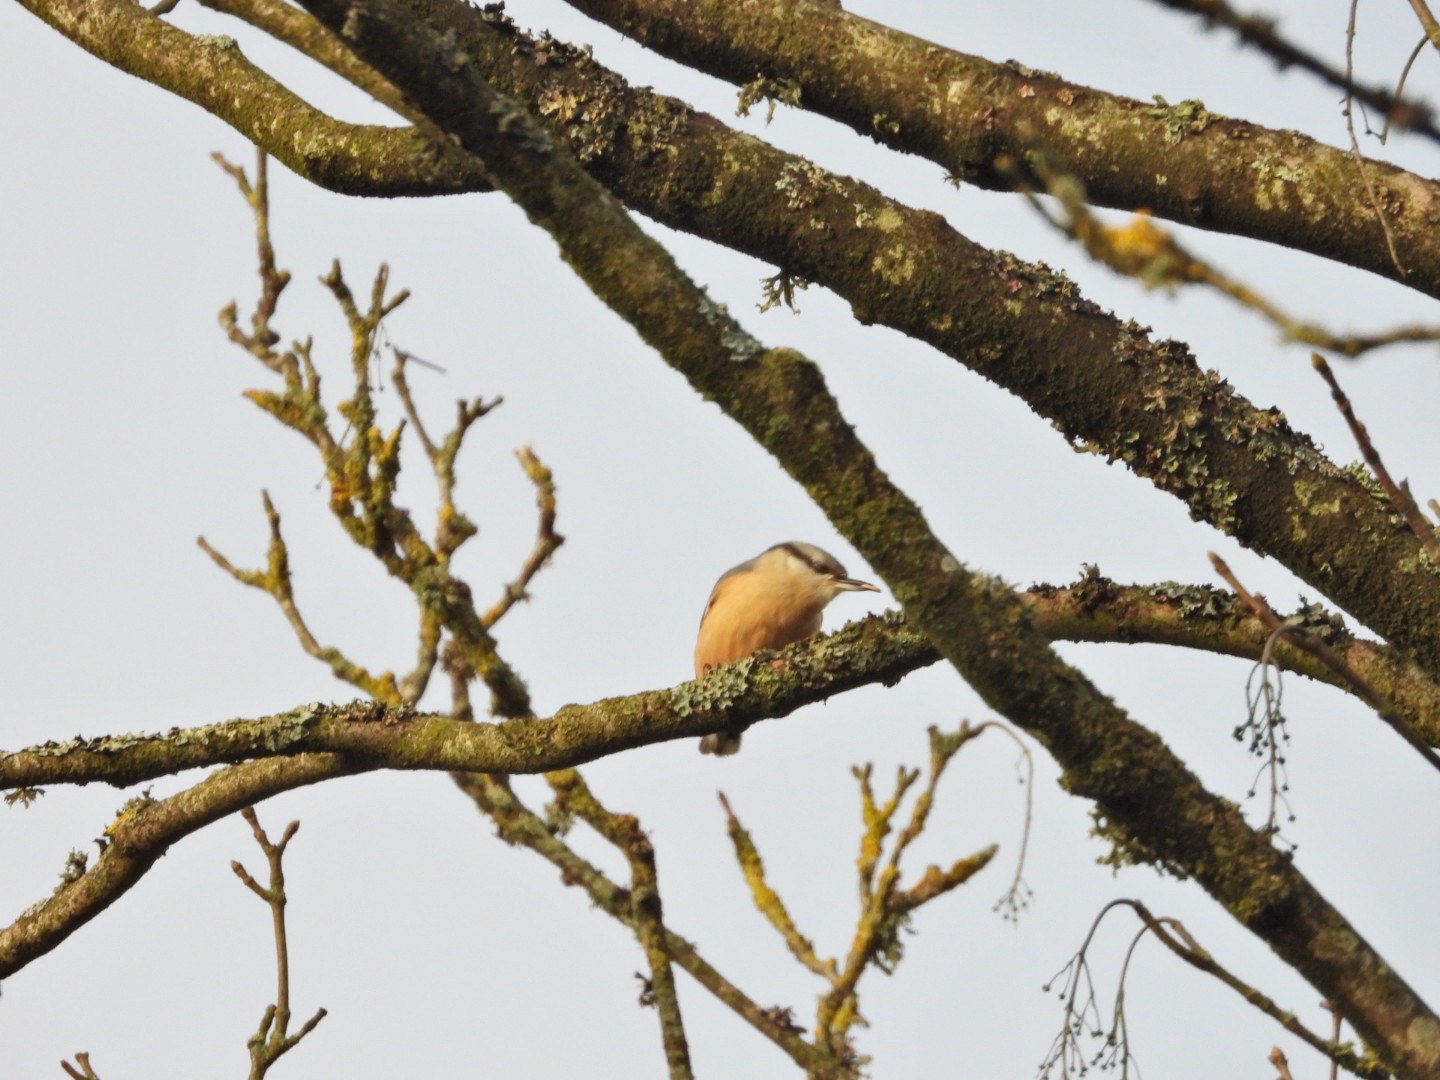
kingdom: Animalia
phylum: Chordata
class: Aves
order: Passeriformes
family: Sittidae
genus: Sitta
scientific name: Sitta europaea
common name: Mørkbuget spætmejse
